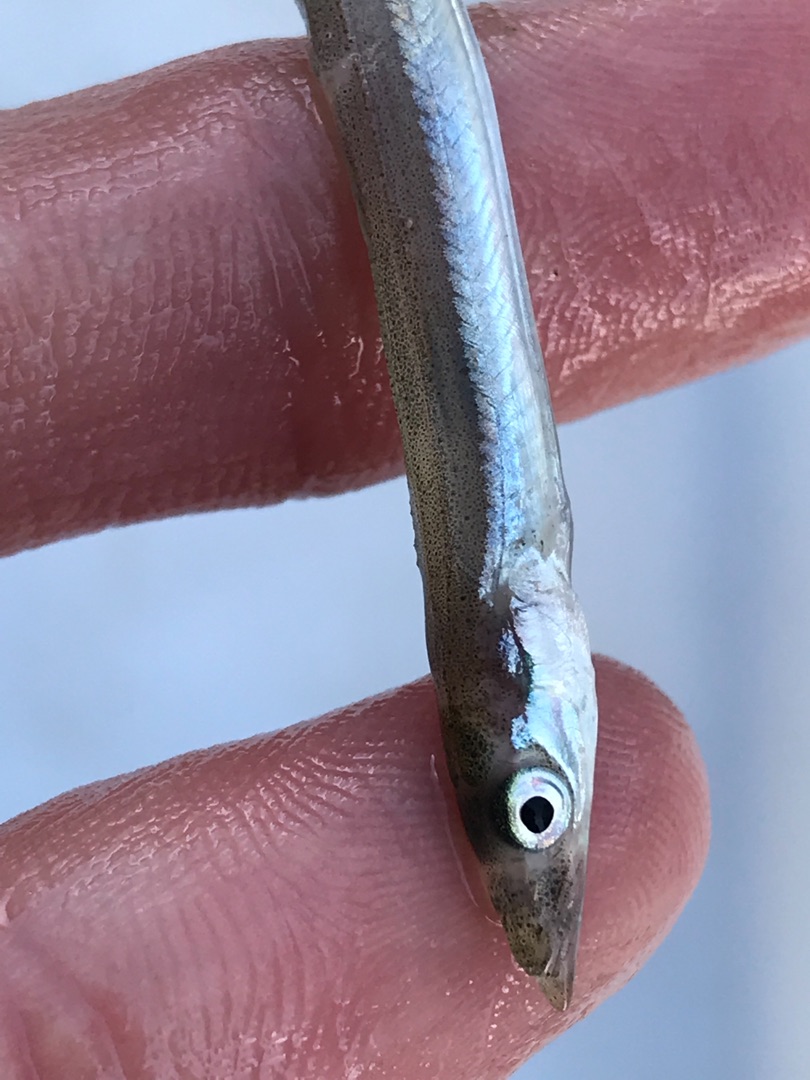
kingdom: Animalia
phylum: Chordata
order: Perciformes
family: Ammodytidae
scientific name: Ammodytidae
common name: Tobisfamilien
